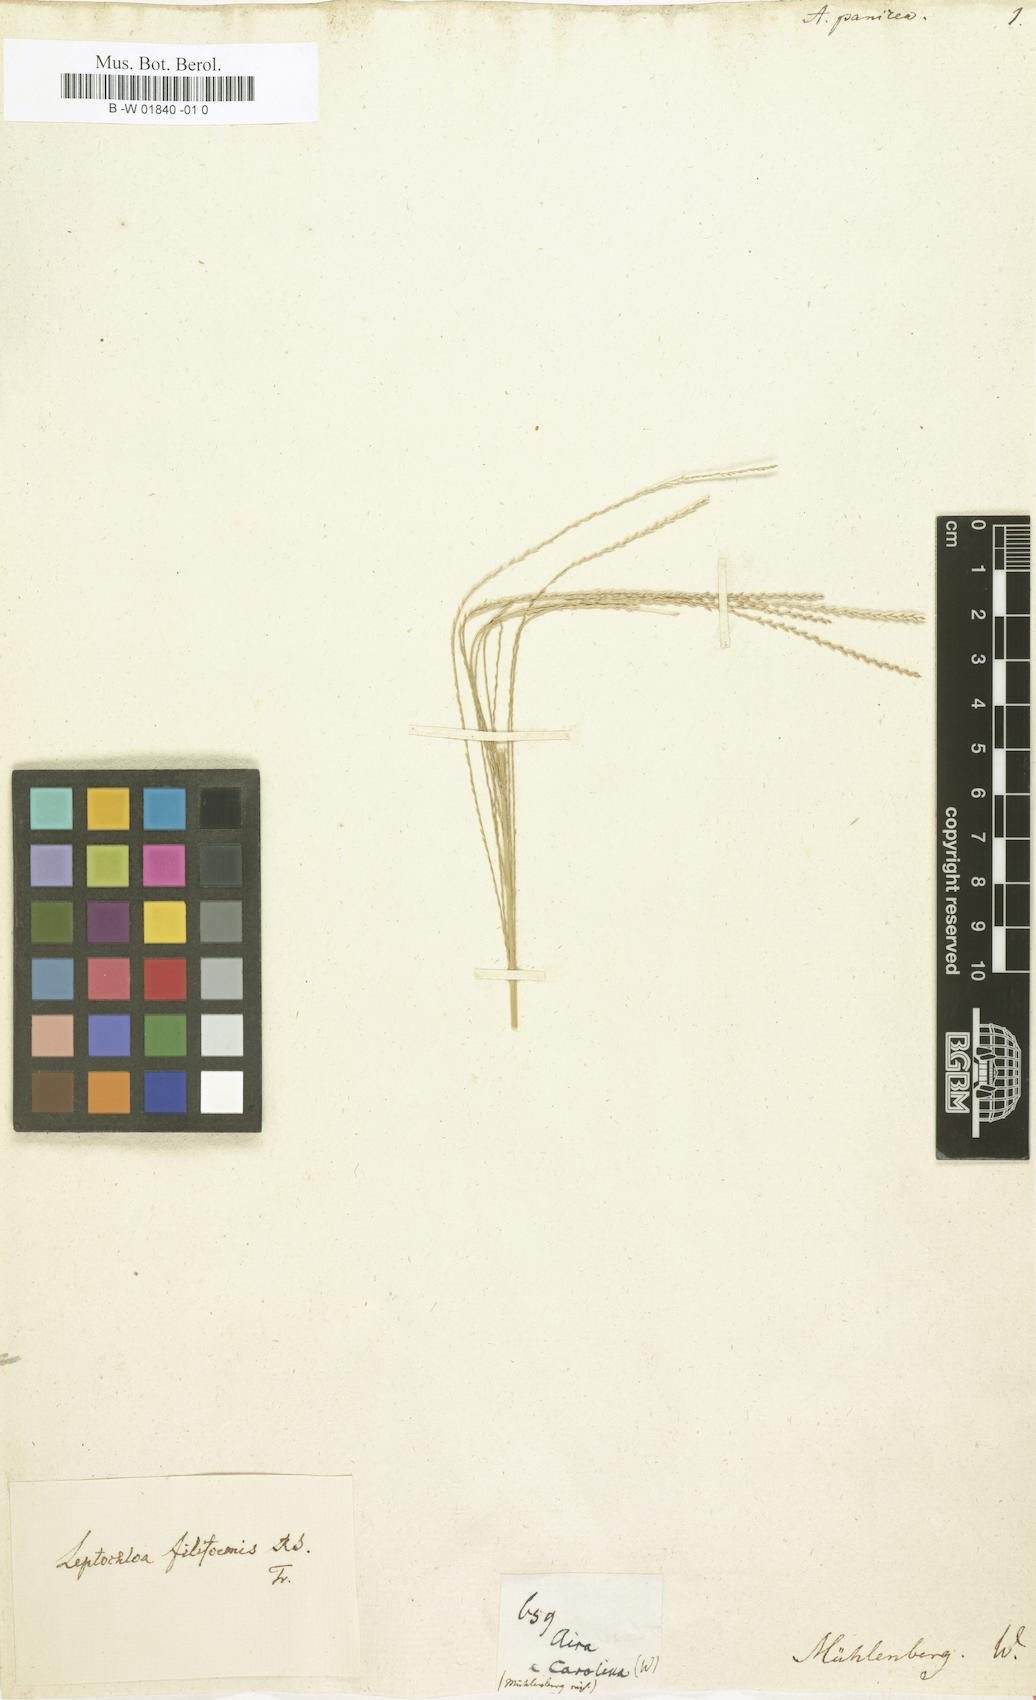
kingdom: Plantae
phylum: Tracheophyta
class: Liliopsida
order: Poales
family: Poaceae
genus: Leptochloa
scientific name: Leptochloa mucronata
